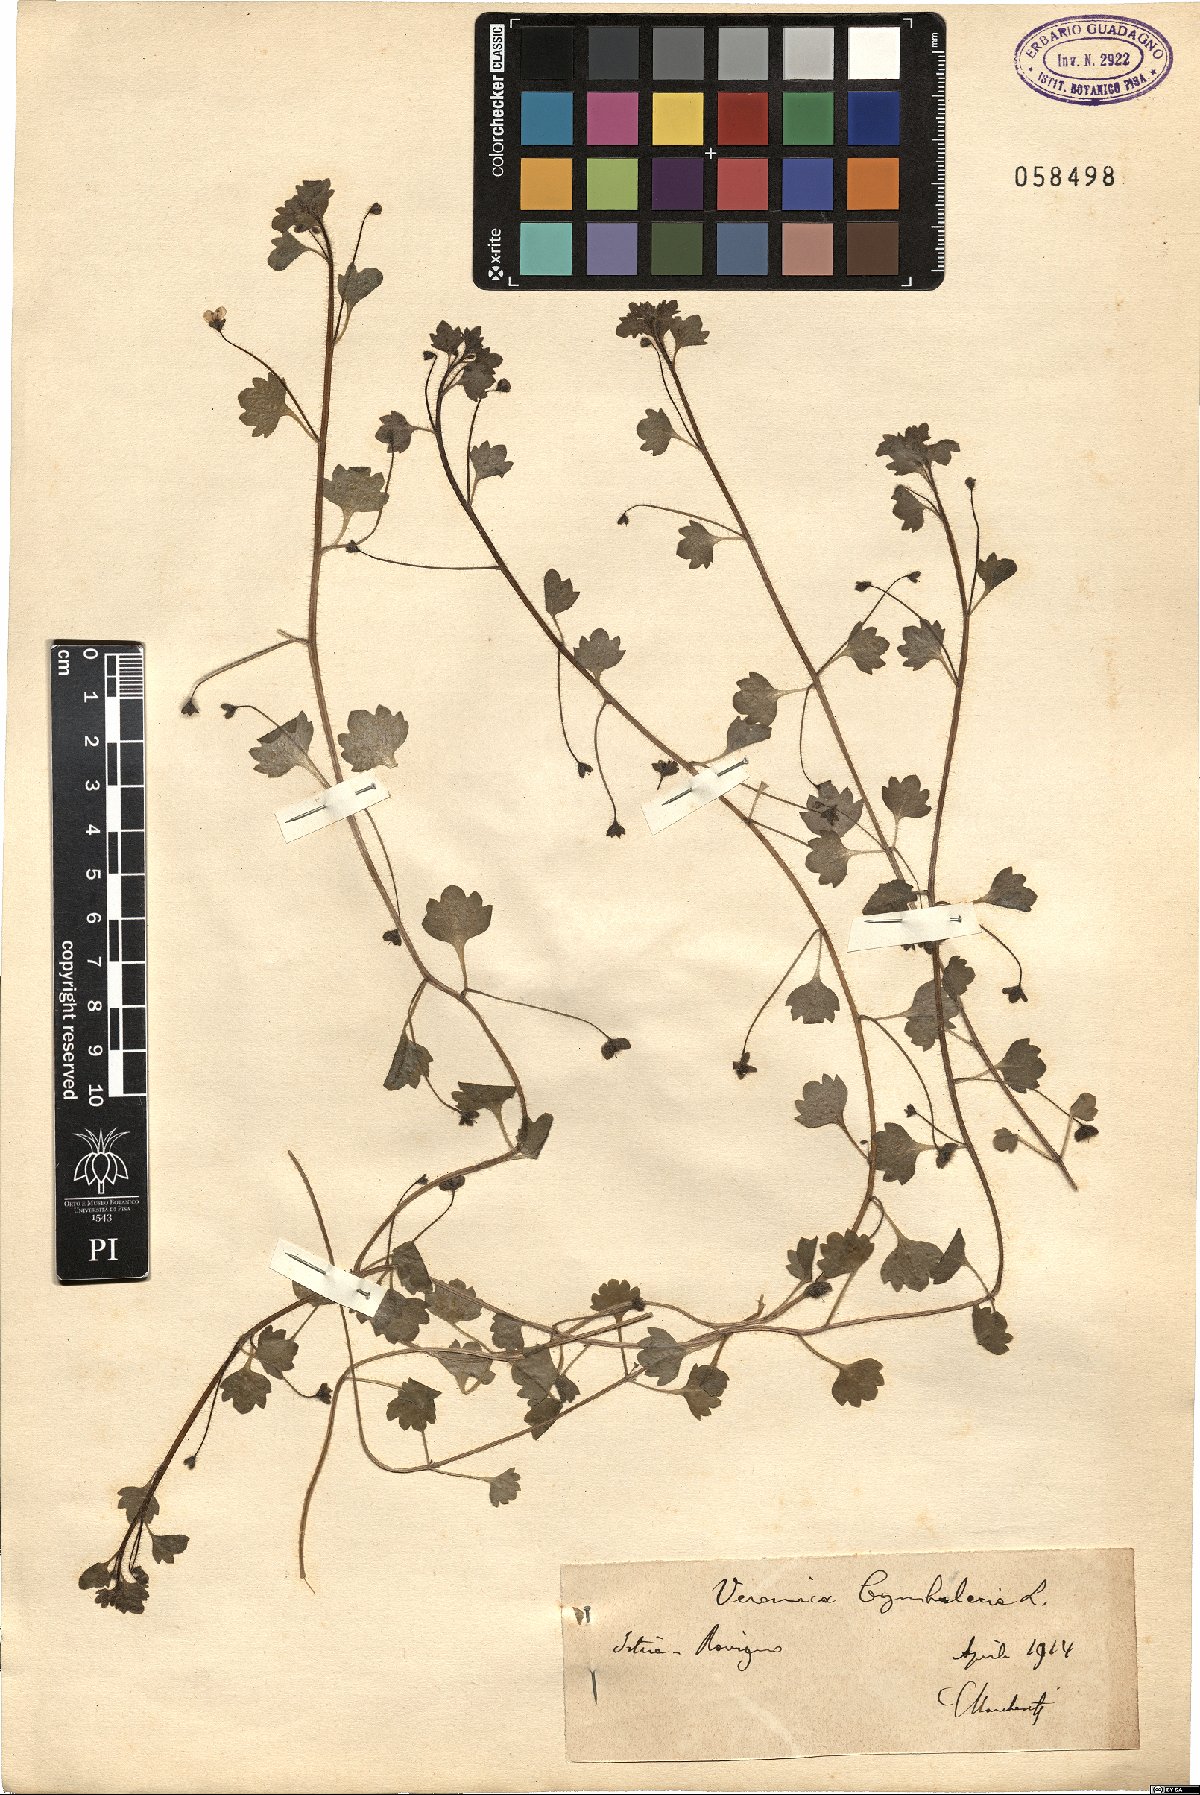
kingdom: Plantae
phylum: Tracheophyta
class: Magnoliopsida
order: Lamiales
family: Plantaginaceae
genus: Veronica
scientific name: Veronica cymbalaria
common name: Pale speedwell
